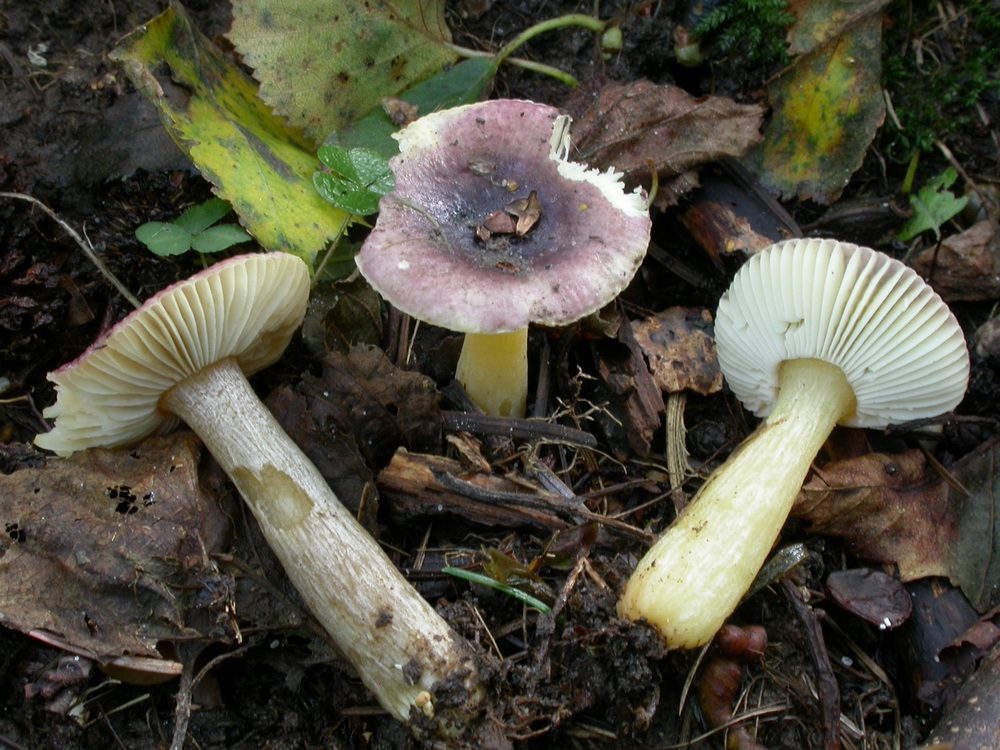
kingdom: Fungi
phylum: Basidiomycota
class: Agaricomycetes
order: Russulales
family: Russulaceae
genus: Russula
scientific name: Russula alnetorum
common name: elle-skørhat
